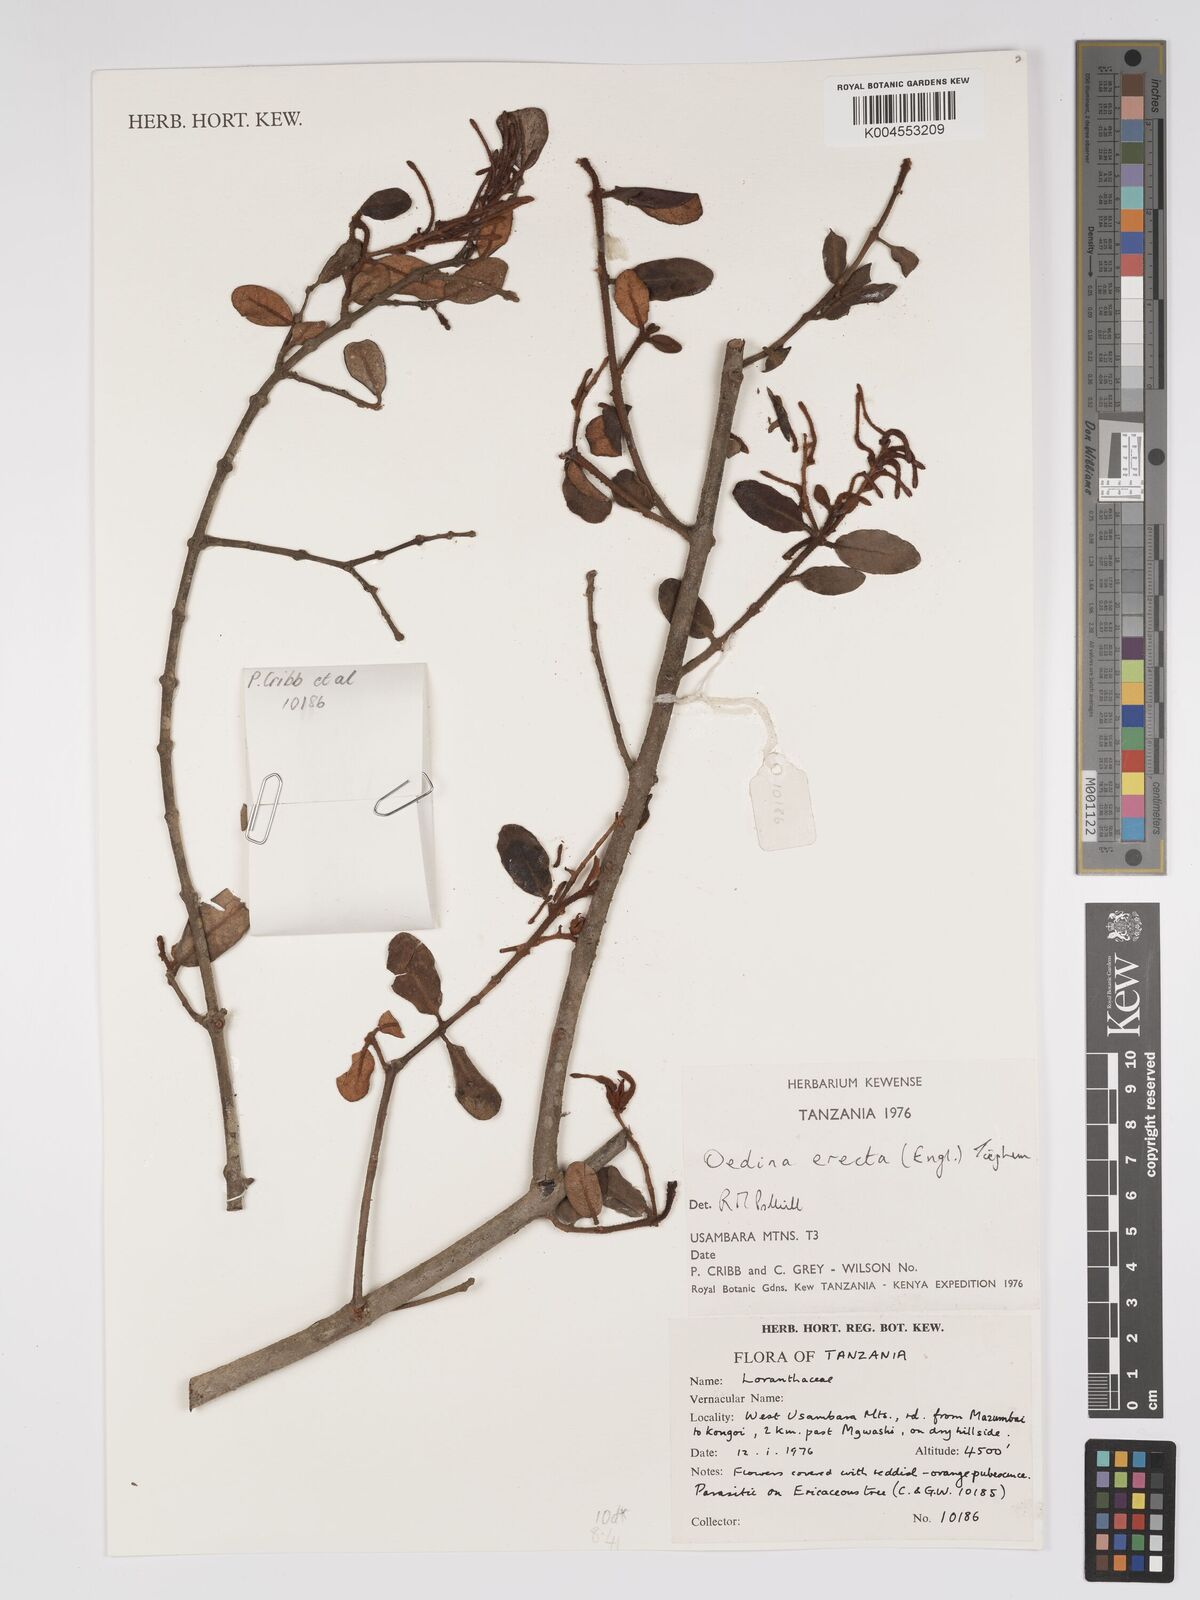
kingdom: Plantae
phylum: Tracheophyta
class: Magnoliopsida
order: Santalales
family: Loranthaceae
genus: Oedina
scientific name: Oedina erecta
